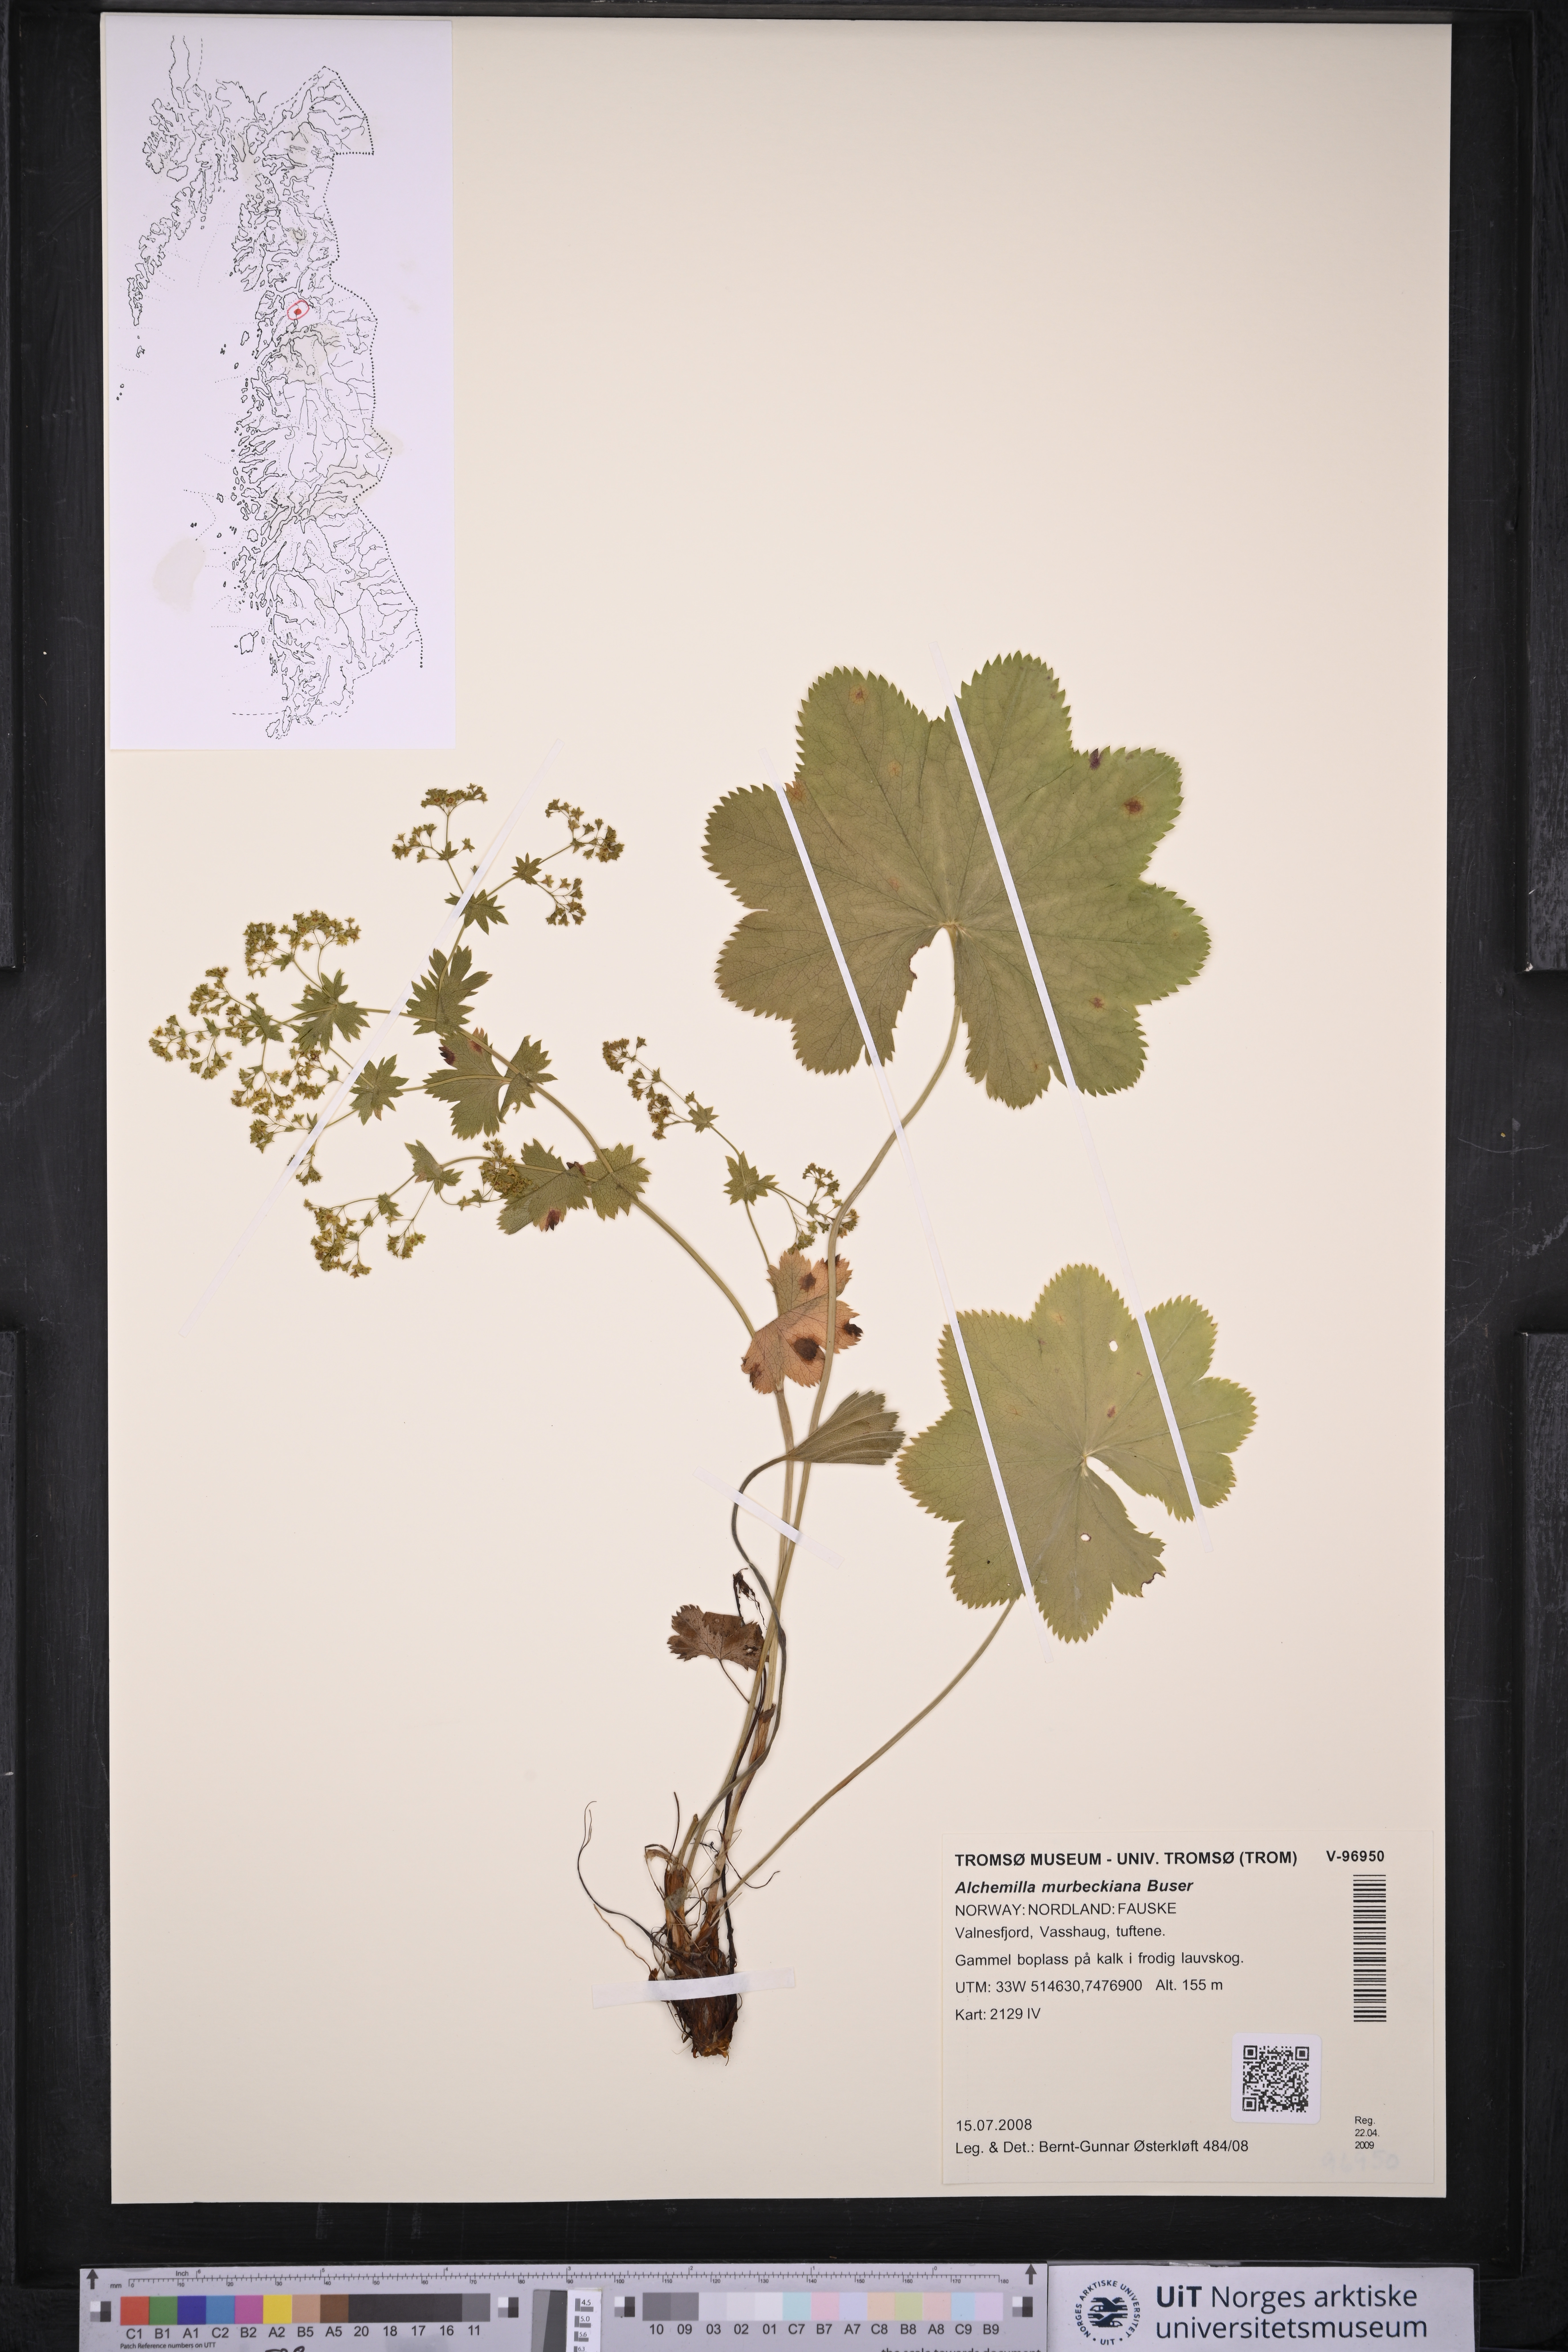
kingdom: Plantae
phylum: Tracheophyta
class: Magnoliopsida
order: Rosales
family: Rosaceae
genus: Alchemilla
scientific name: Alchemilla murbeckiana
